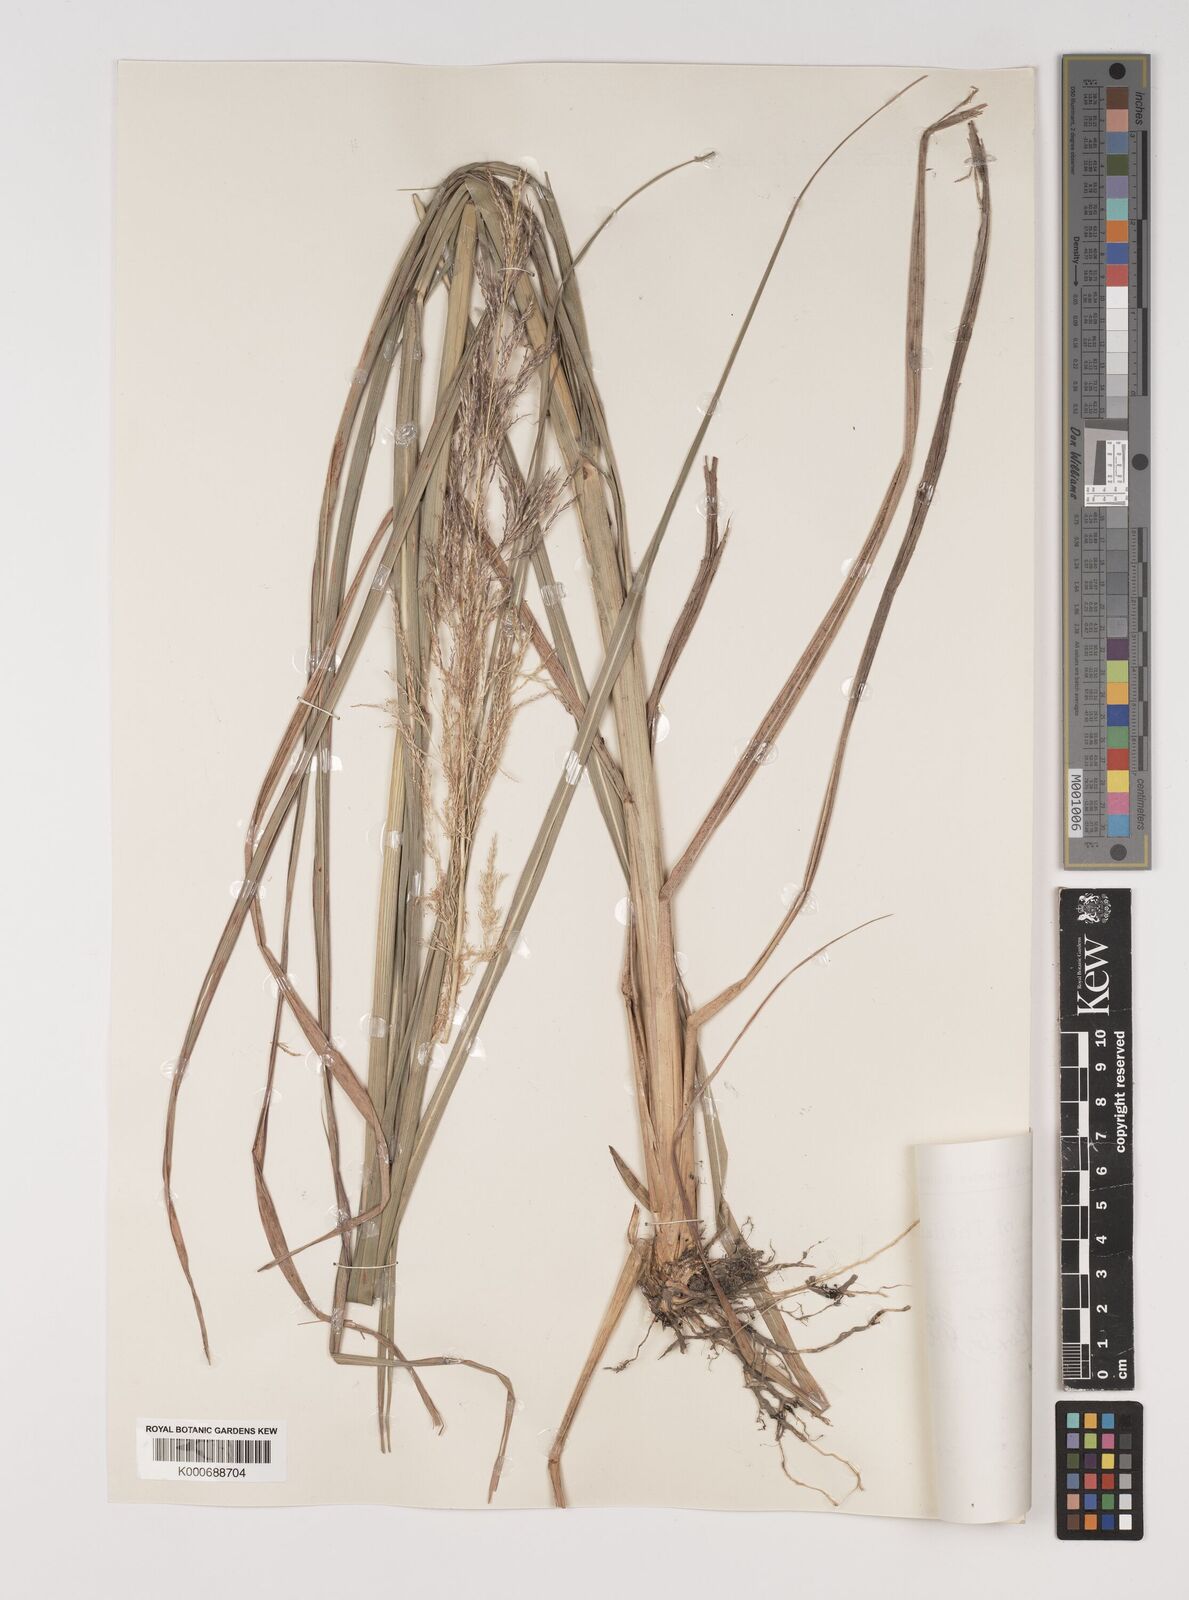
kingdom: Plantae
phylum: Tracheophyta
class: Liliopsida
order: Poales
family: Poaceae
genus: Bothriochloa
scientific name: Bothriochloa bladhii
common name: Caucasian bluestem
